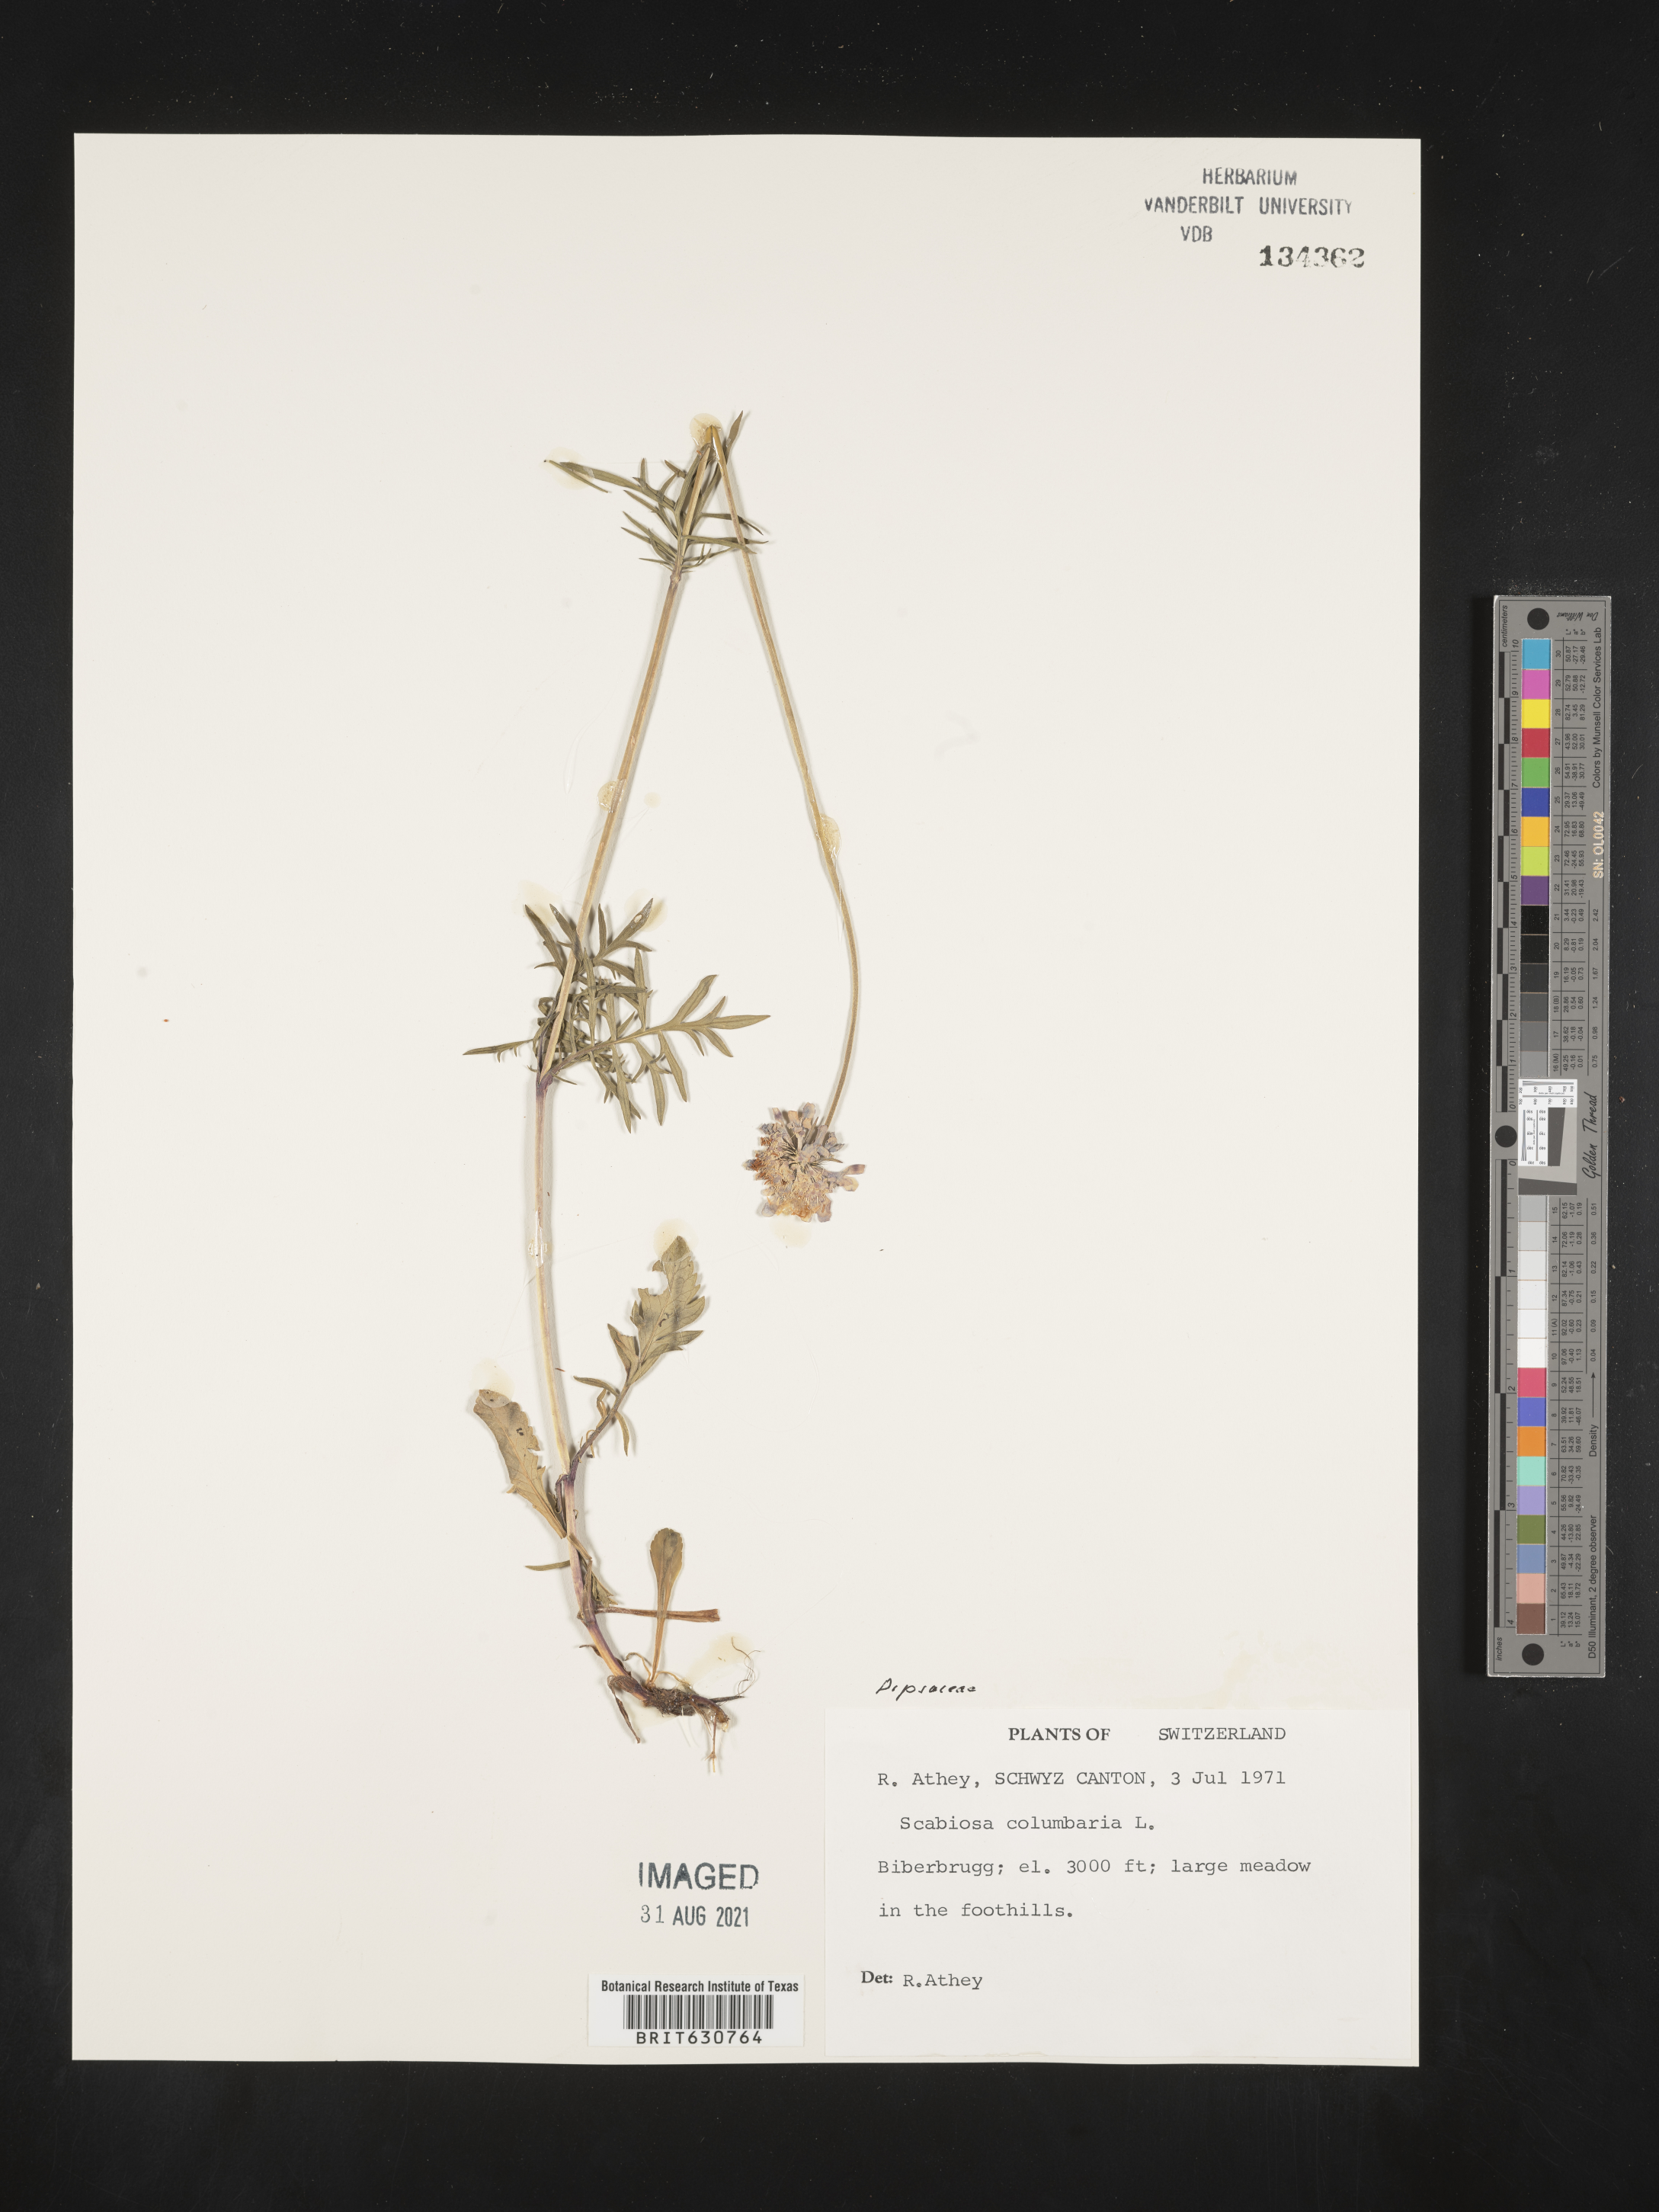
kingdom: Plantae
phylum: Tracheophyta
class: Magnoliopsida
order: Dipsacales
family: Caprifoliaceae
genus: Scabiosa
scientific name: Scabiosa columbaria
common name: Small scabious
